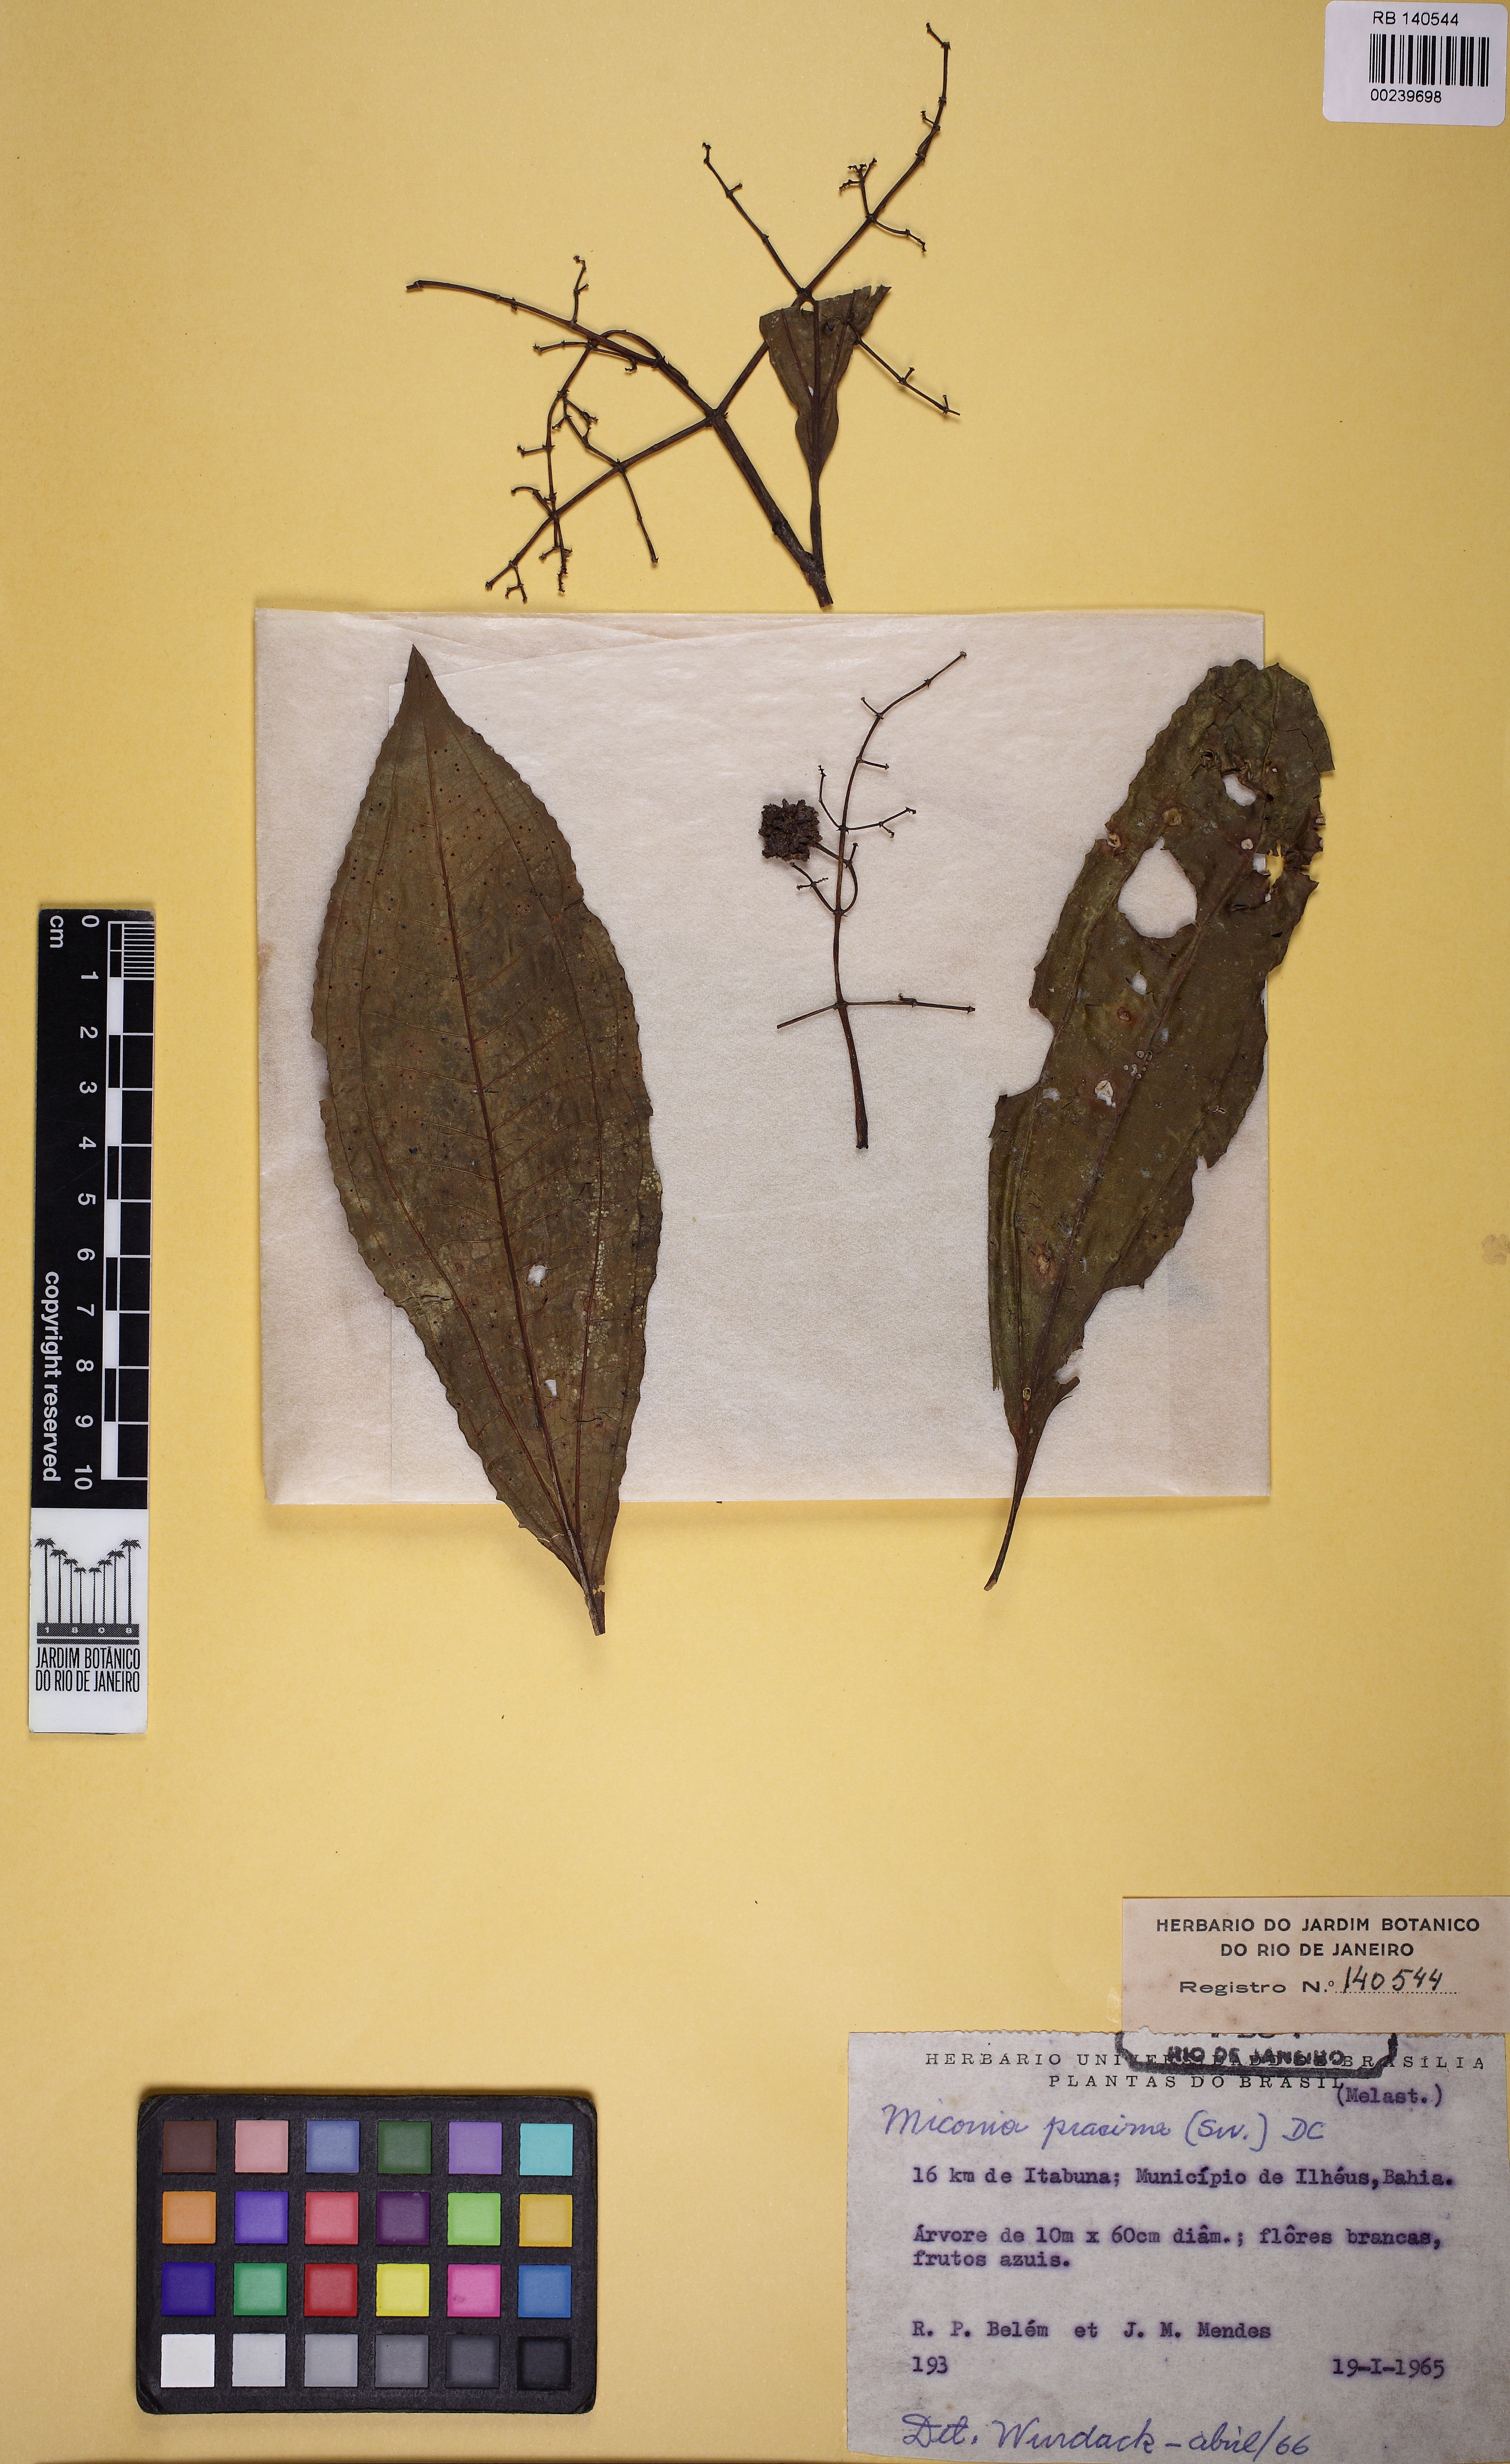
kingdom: Plantae
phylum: Tracheophyta
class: Magnoliopsida
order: Myrtales
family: Melastomataceae
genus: Miconia
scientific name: Miconia prasina
